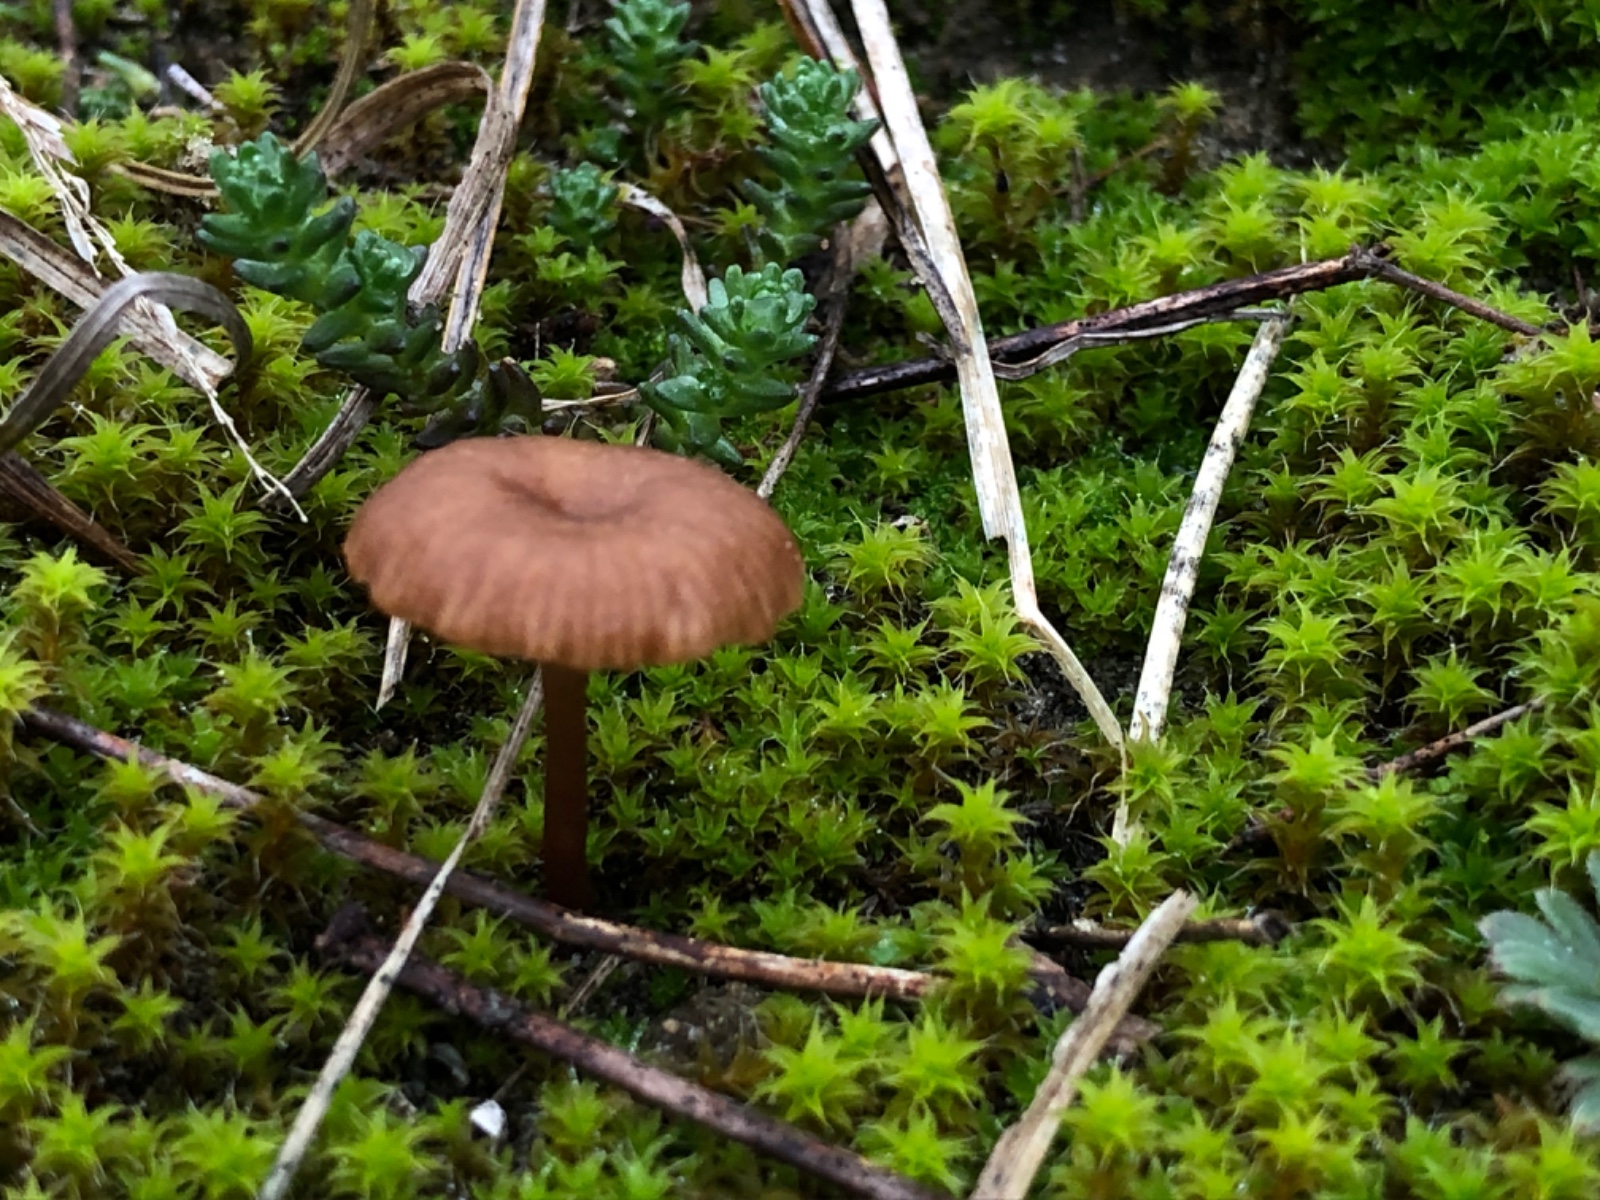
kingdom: Fungi
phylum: Basidiomycota
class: Agaricomycetes
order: Agaricales
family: Tricholomataceae
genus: Omphalina
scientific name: Omphalina pyxidata
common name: rødbrun navlehat
